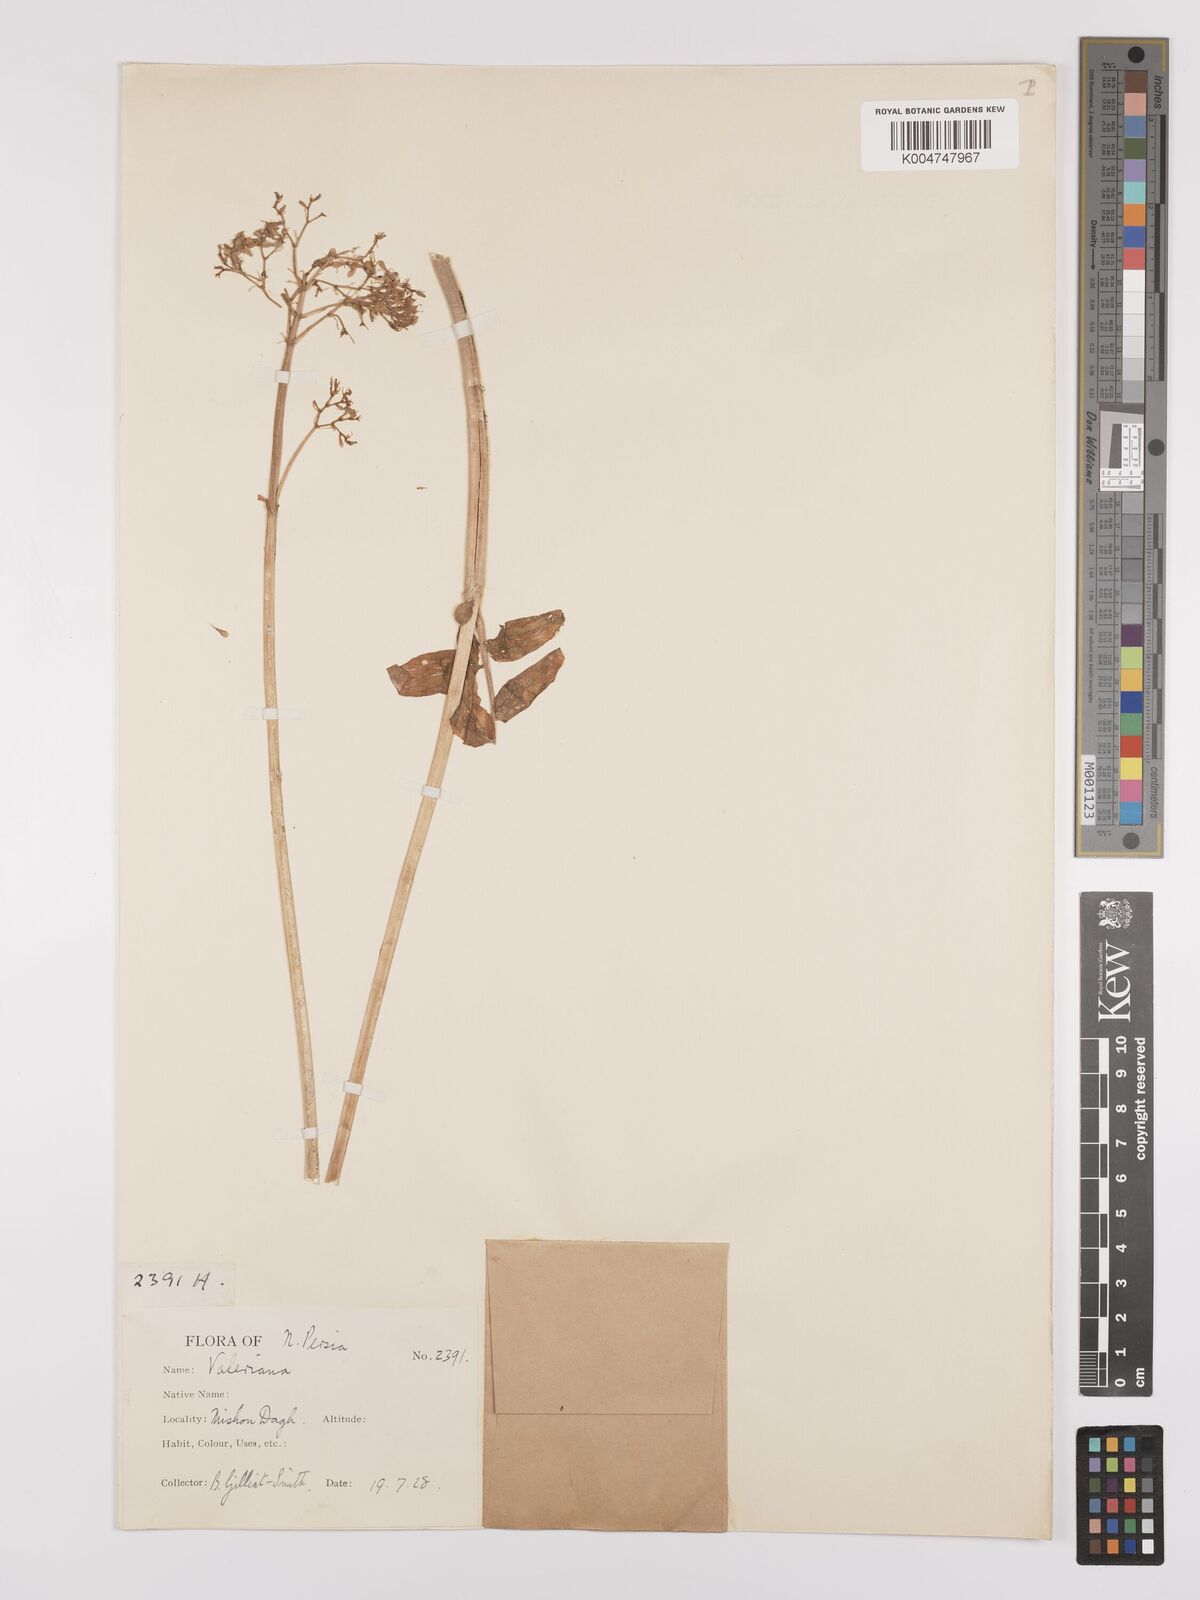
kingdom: Plantae
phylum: Tracheophyta
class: Magnoliopsida
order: Dipsacales
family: Caprifoliaceae
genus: Valeriana
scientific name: Valeriana officinalis
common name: Common valerian
